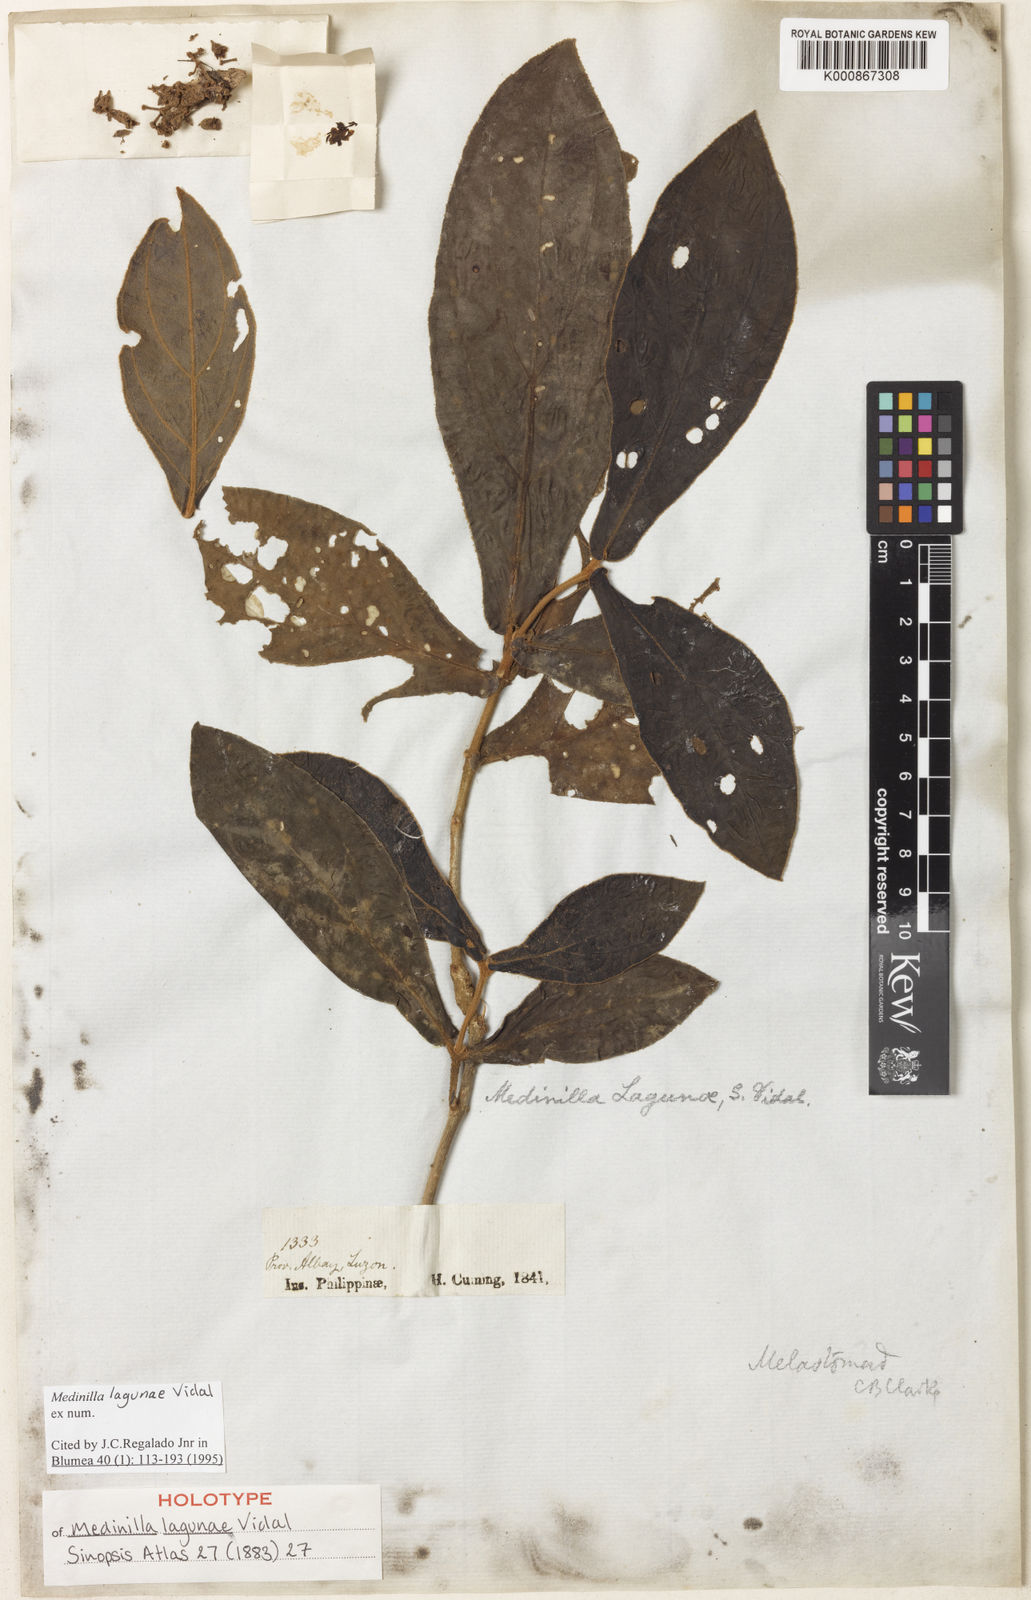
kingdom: Plantae
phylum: Tracheophyta
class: Magnoliopsida
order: Myrtales
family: Melastomataceae
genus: Medinilla
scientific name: Medinilla lagunae
